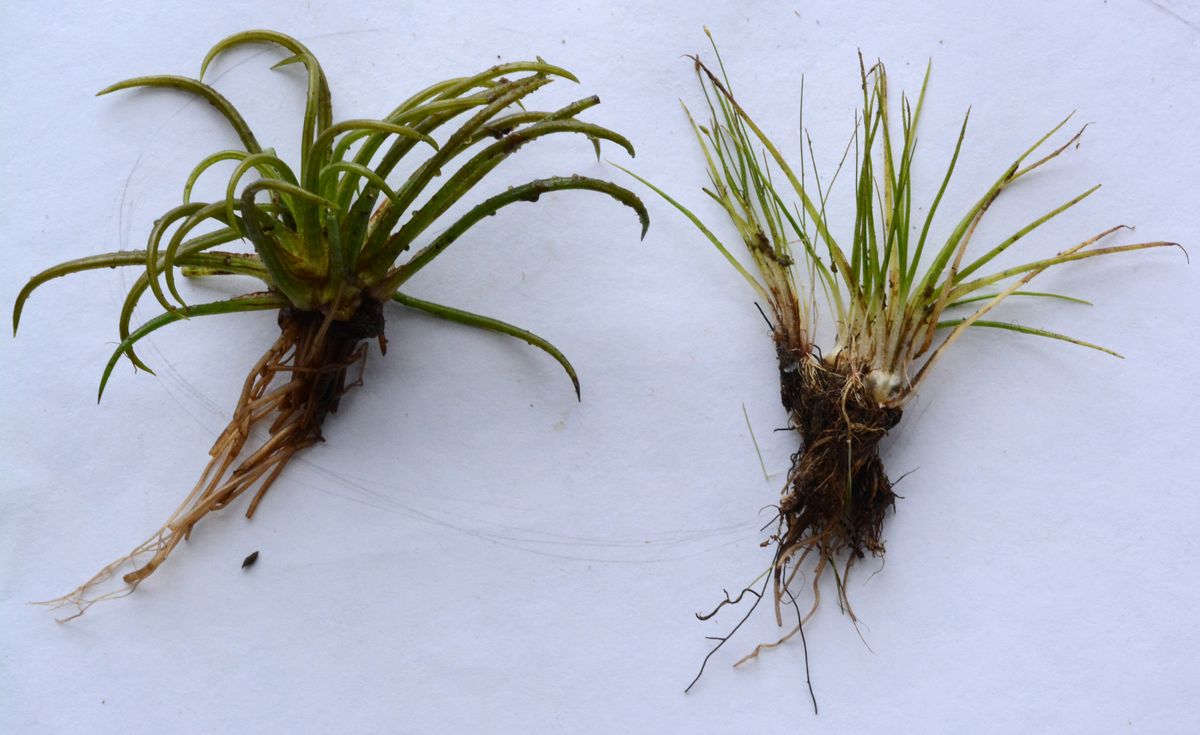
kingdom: Plantae
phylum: Tracheophyta
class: Lycopodiopsida
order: Isoetales
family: Isoetaceae
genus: Isoetes
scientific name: Isoetes echinospora
